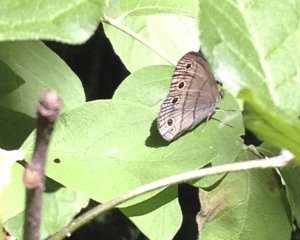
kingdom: Animalia
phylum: Arthropoda
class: Insecta
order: Lepidoptera
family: Nymphalidae
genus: Euptychia
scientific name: Euptychia cymela
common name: Little Wood Satyr
